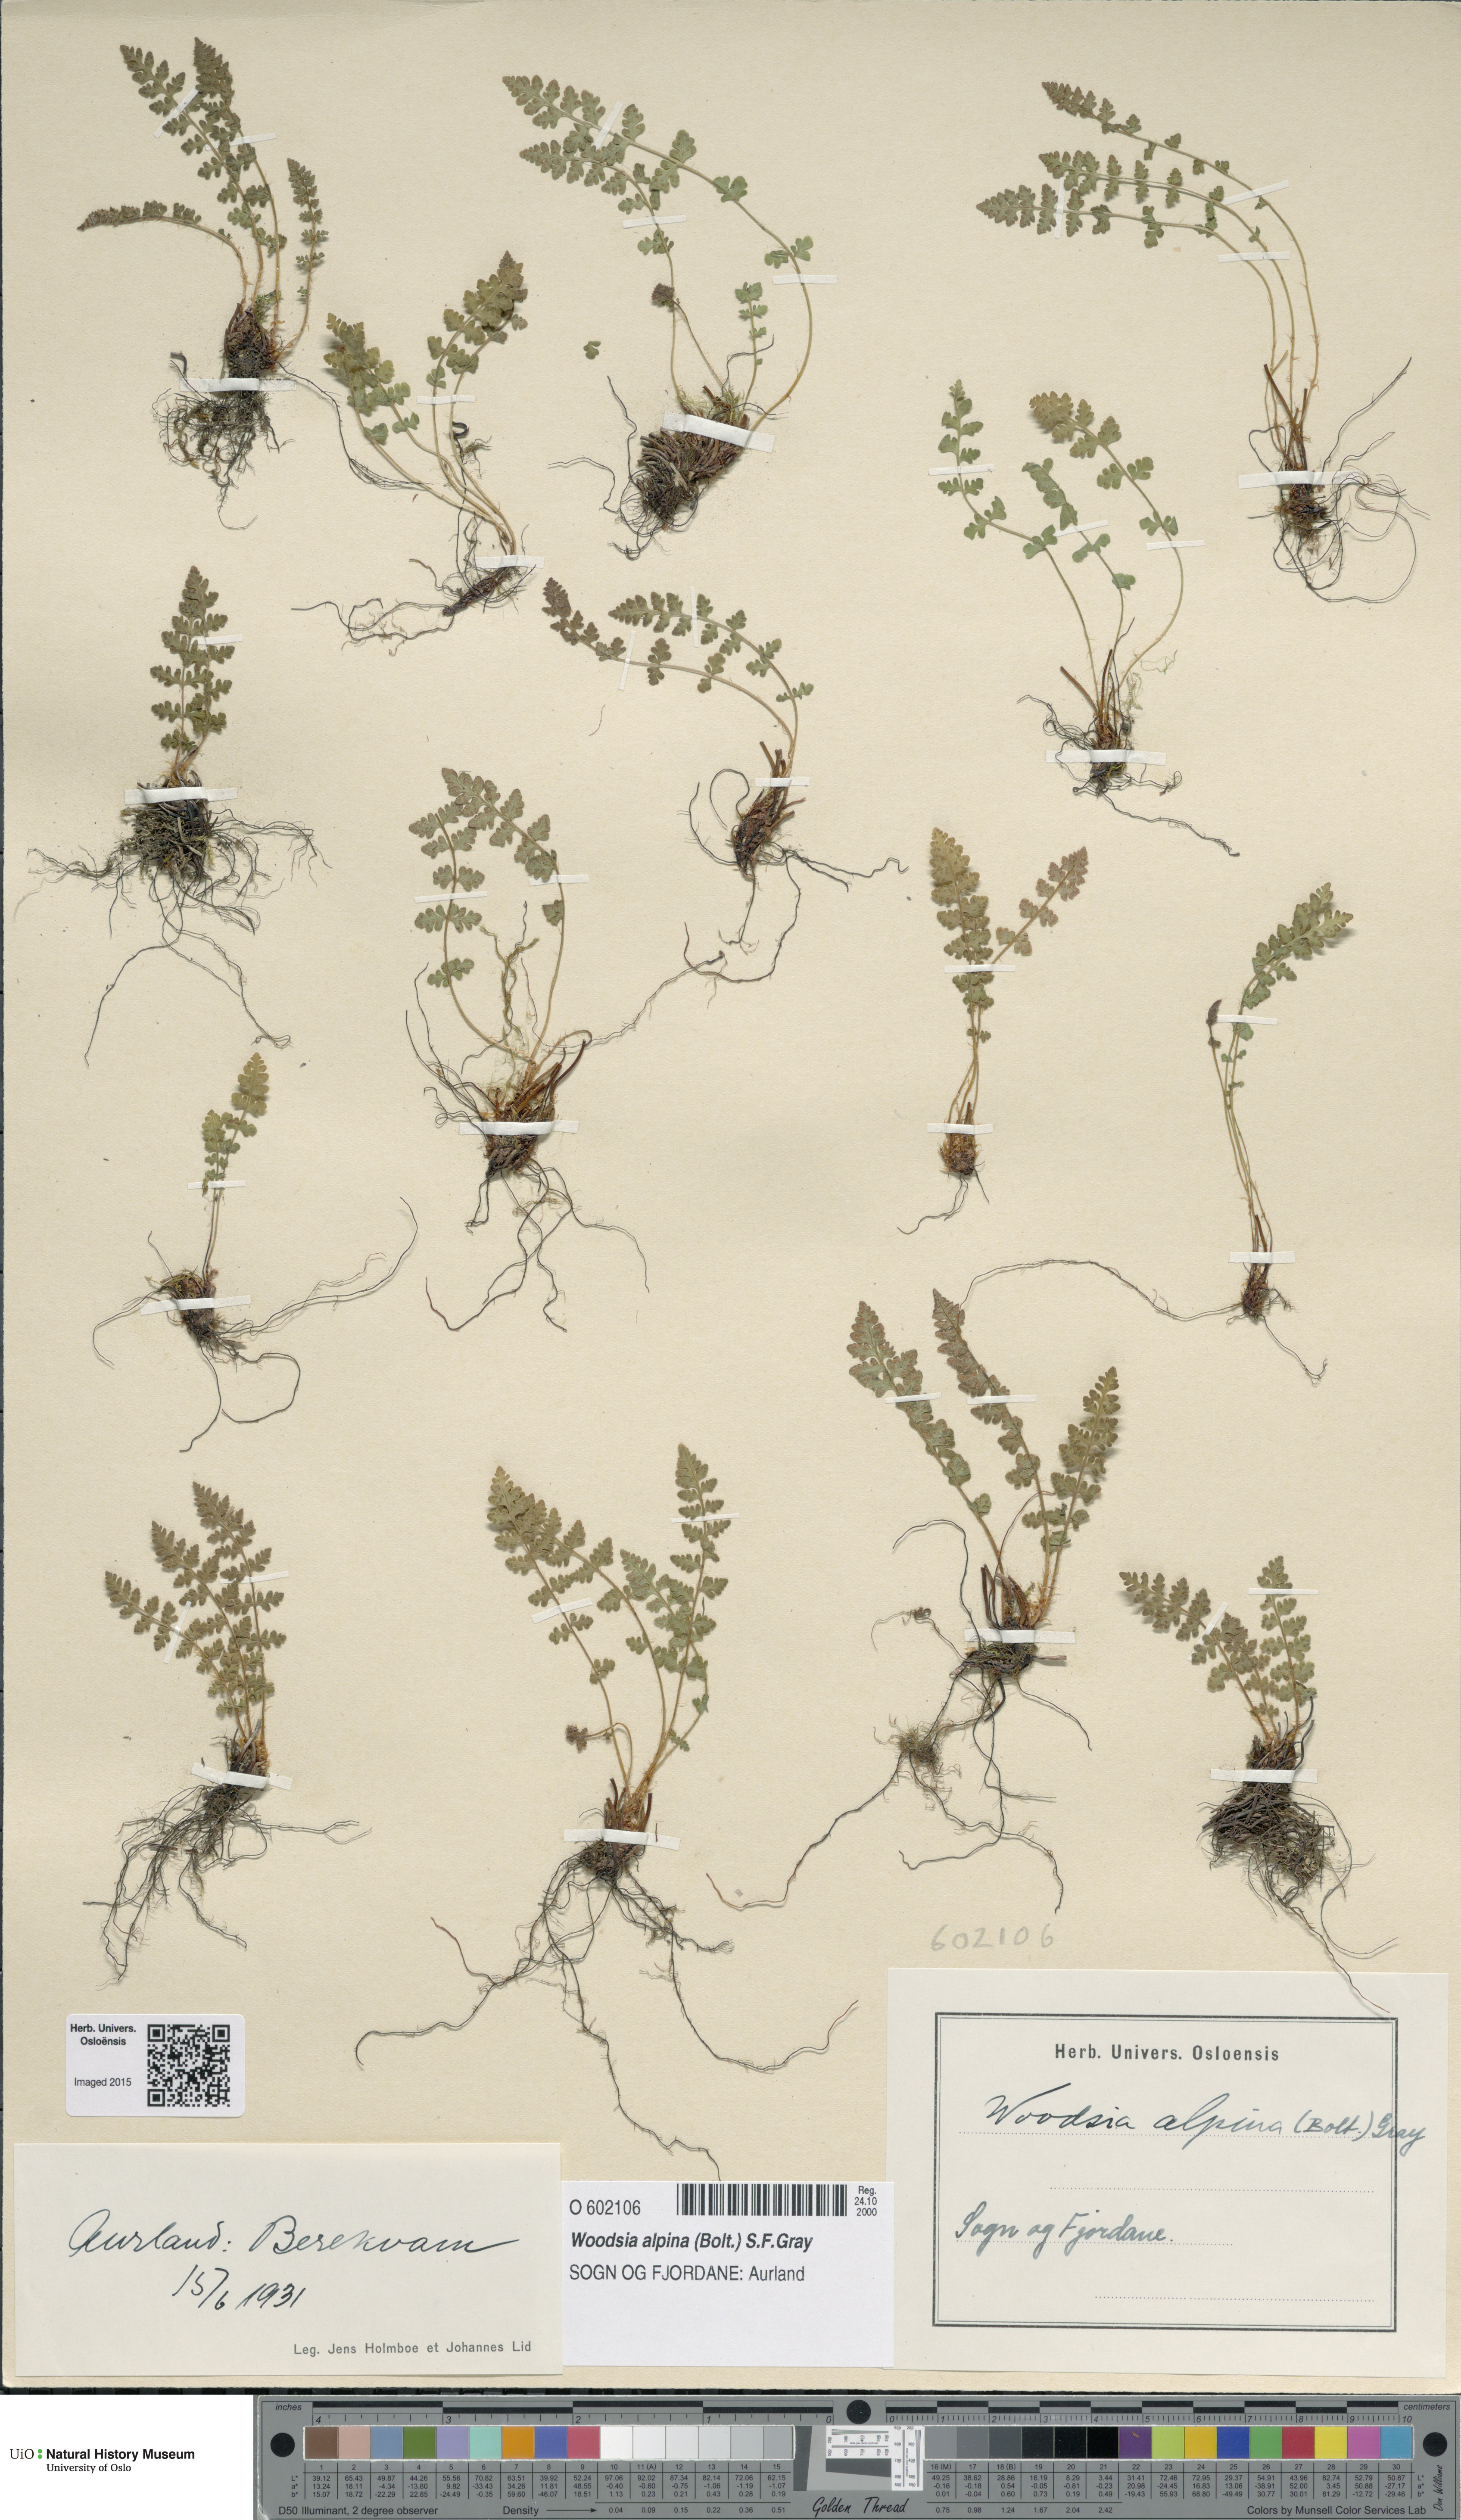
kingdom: Plantae
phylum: Tracheophyta
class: Polypodiopsida
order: Polypodiales
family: Woodsiaceae
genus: Woodsia
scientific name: Woodsia alpina
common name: Alpine woodsia
